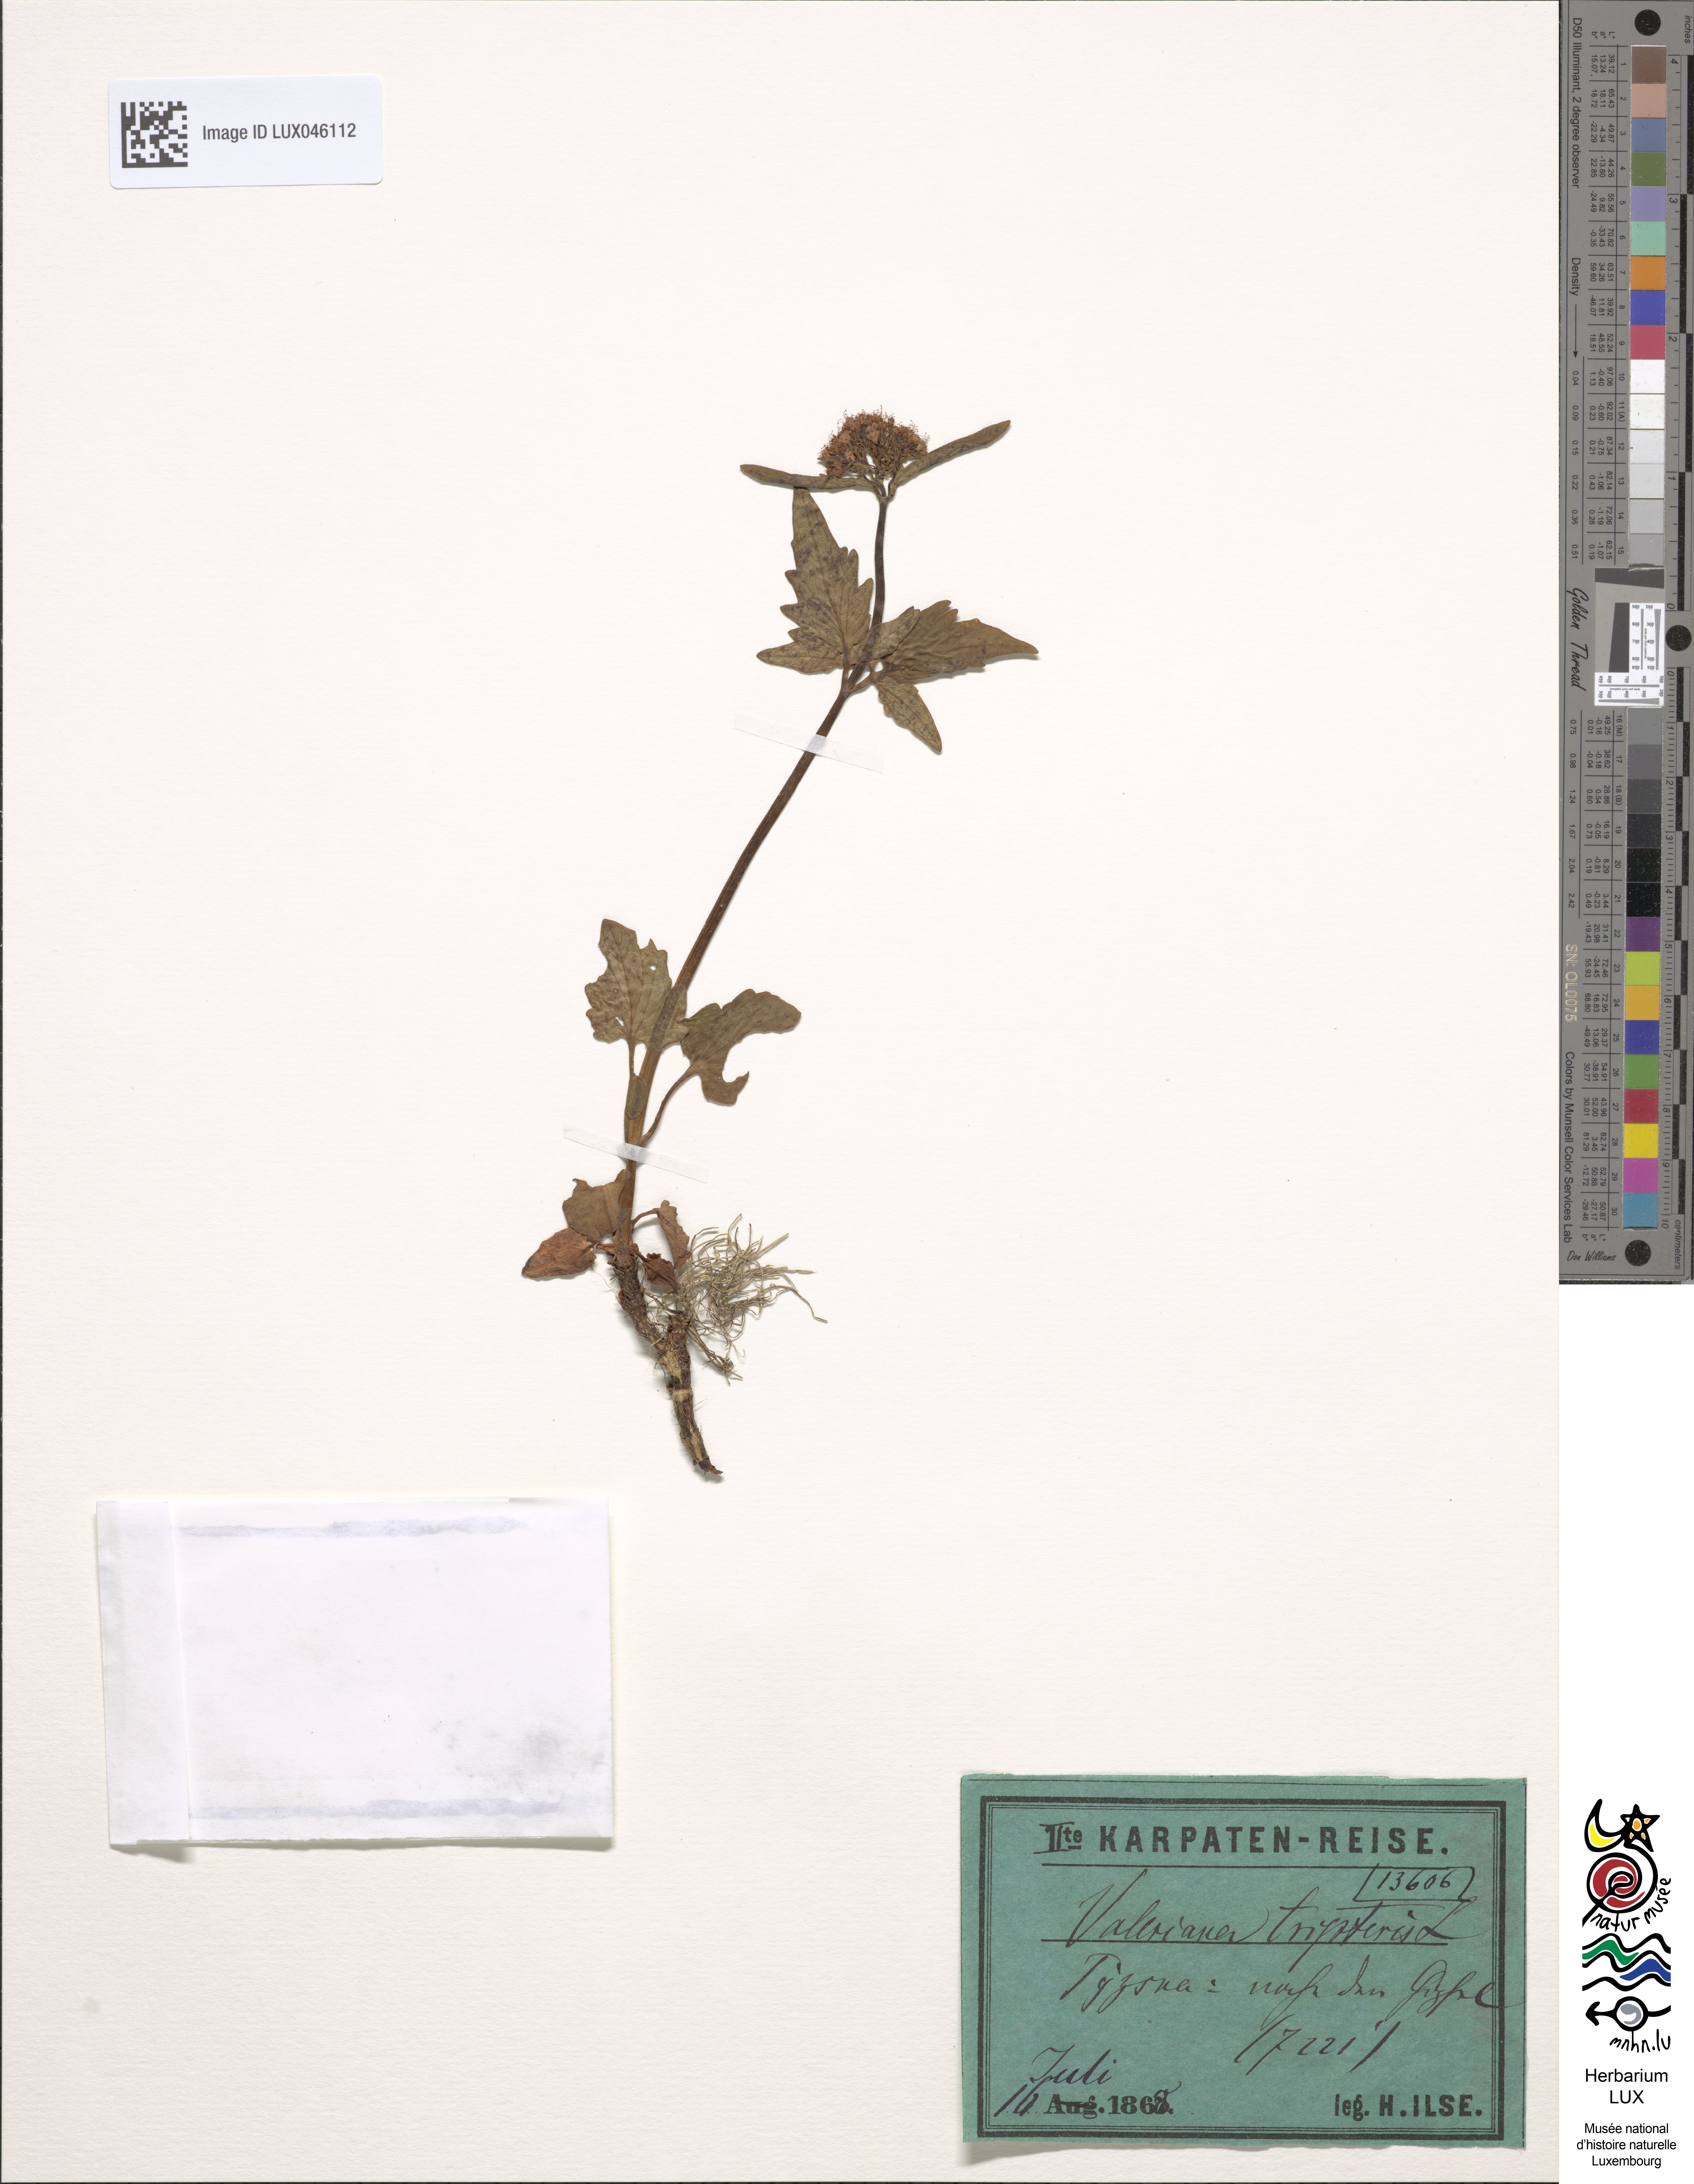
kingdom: Plantae
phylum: Tracheophyta
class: Magnoliopsida
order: Dipsacales
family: Caprifoliaceae
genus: Valeriana
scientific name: Valeriana tripteris
